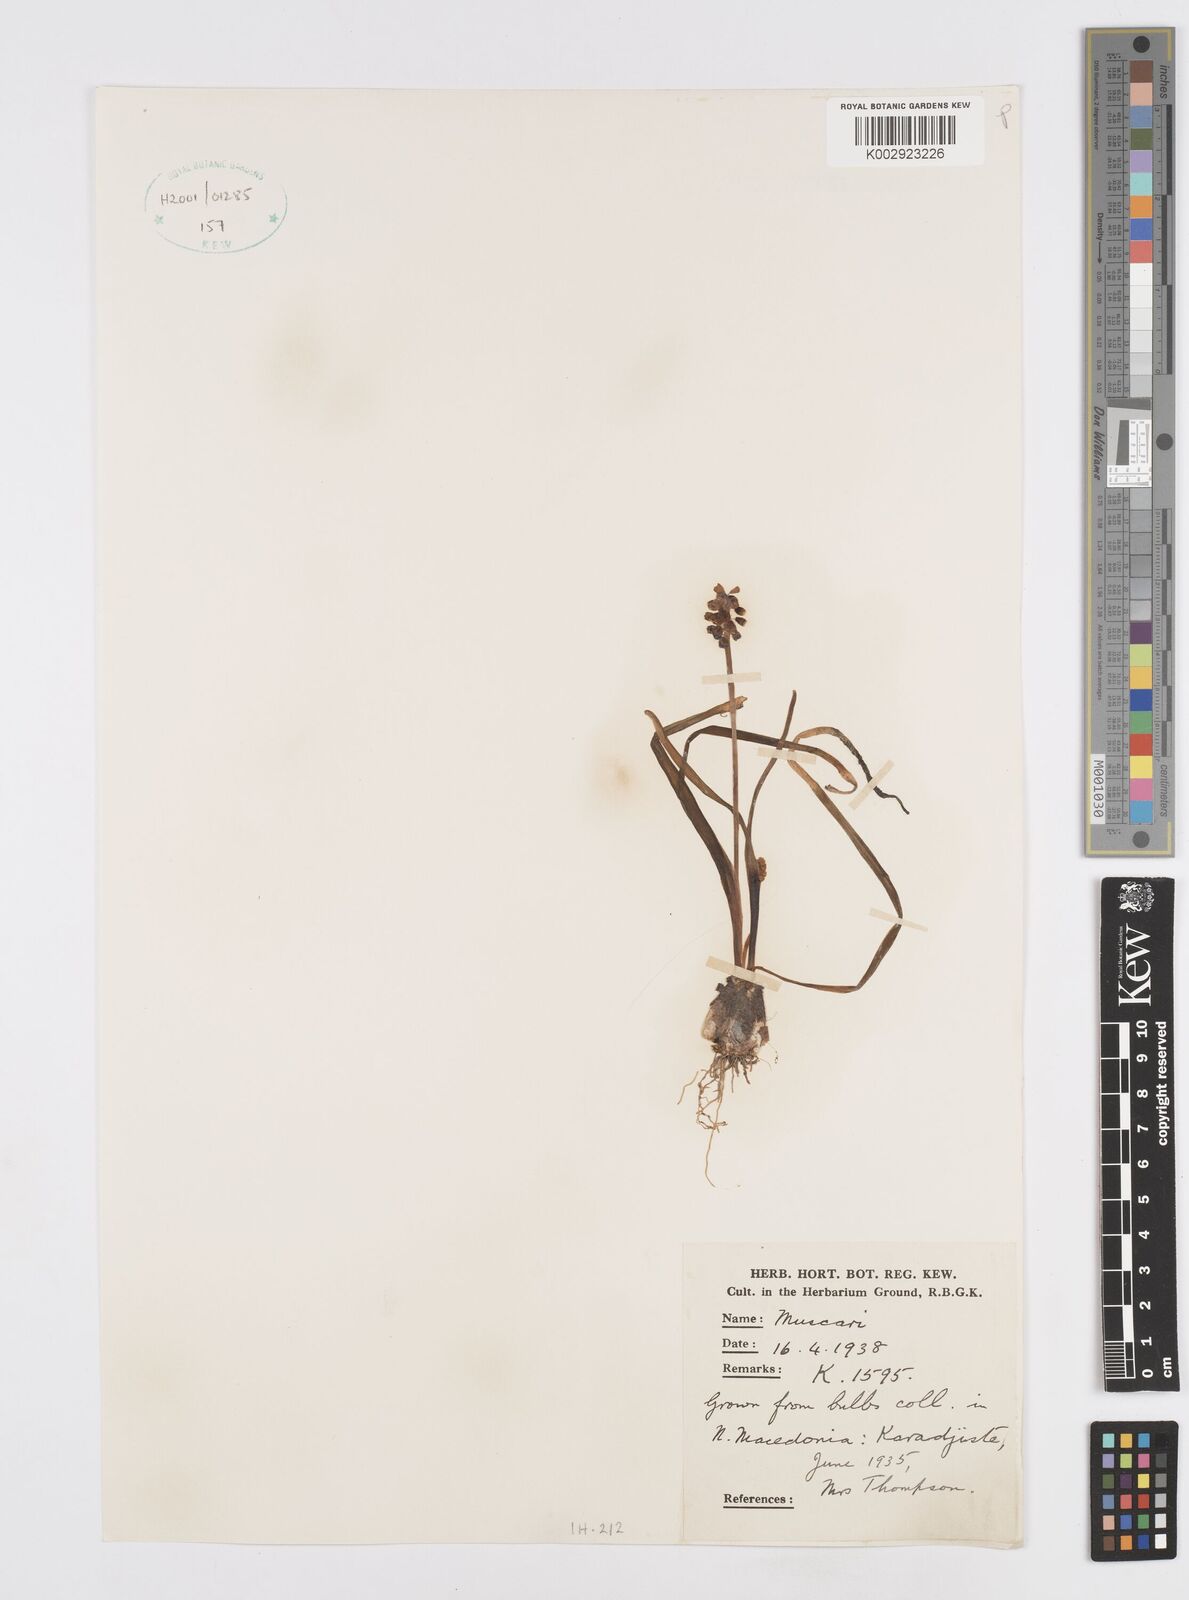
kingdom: Plantae
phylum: Tracheophyta
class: Liliopsida
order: Asparagales
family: Asparagaceae
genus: Muscari
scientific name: Muscari
